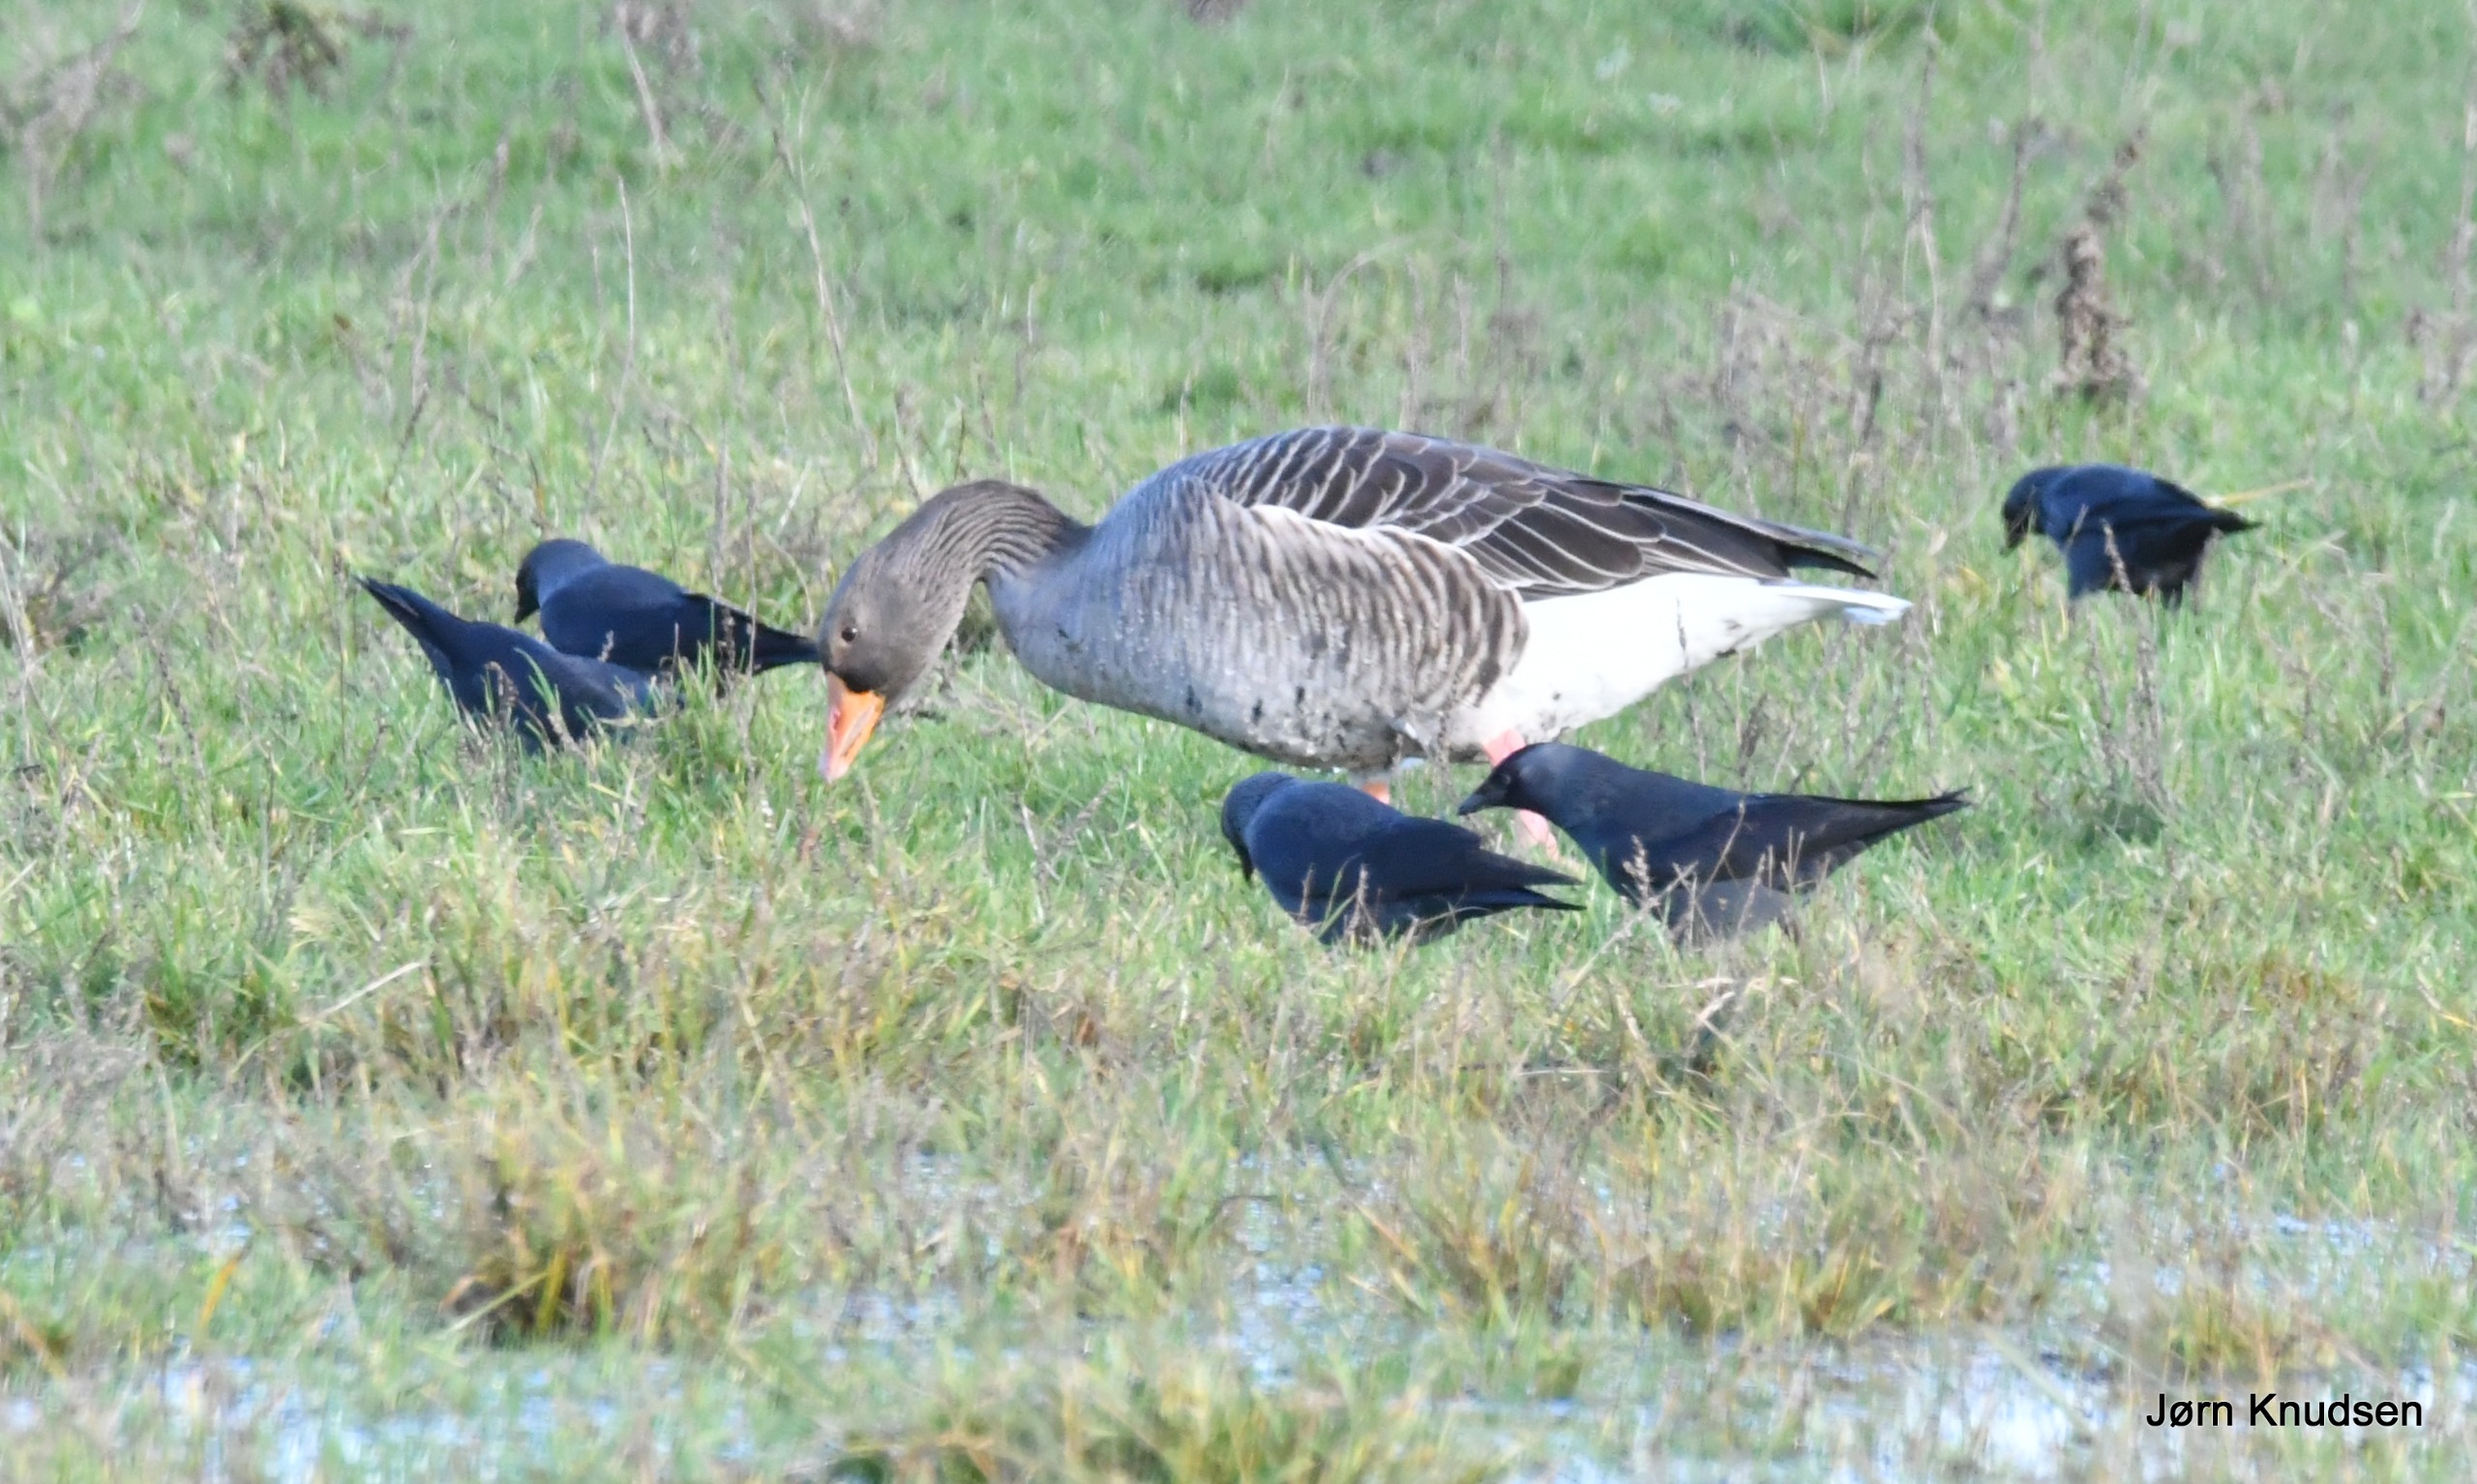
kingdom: Animalia
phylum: Chordata
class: Aves
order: Anseriformes
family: Anatidae
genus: Anser
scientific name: Anser anser
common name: Grågås
